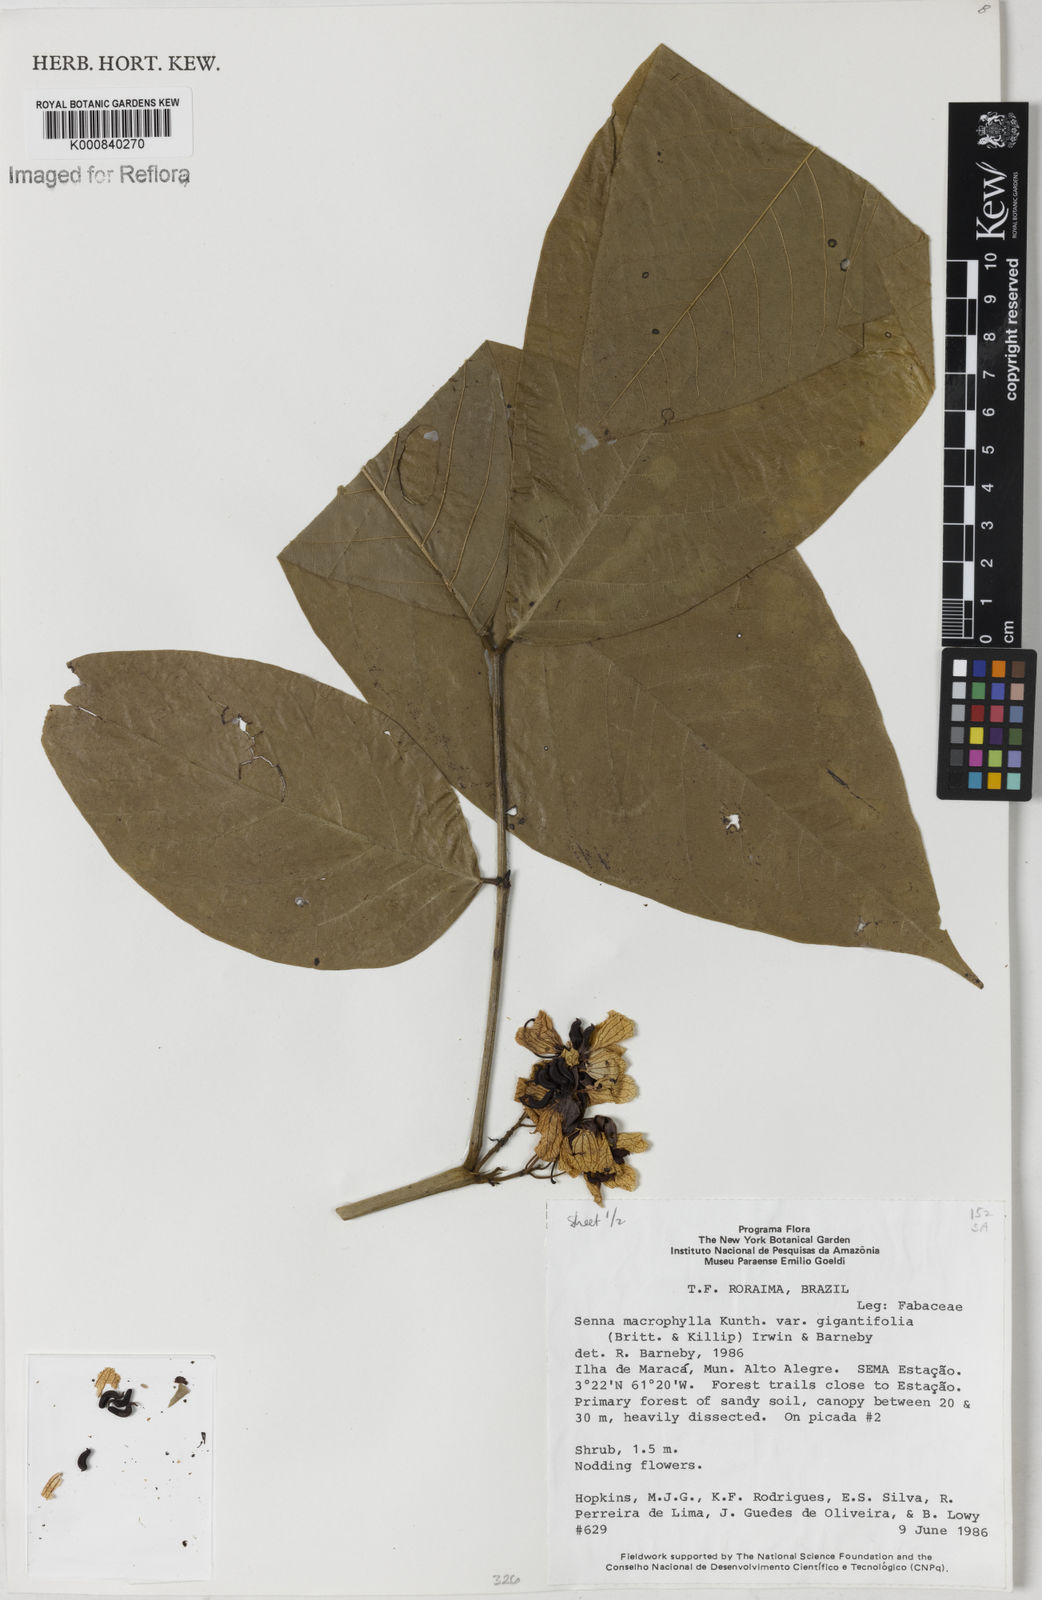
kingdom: Plantae
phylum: Tracheophyta
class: Magnoliopsida
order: Fabales
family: Fabaceae
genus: Senna
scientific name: Senna macrophylla
